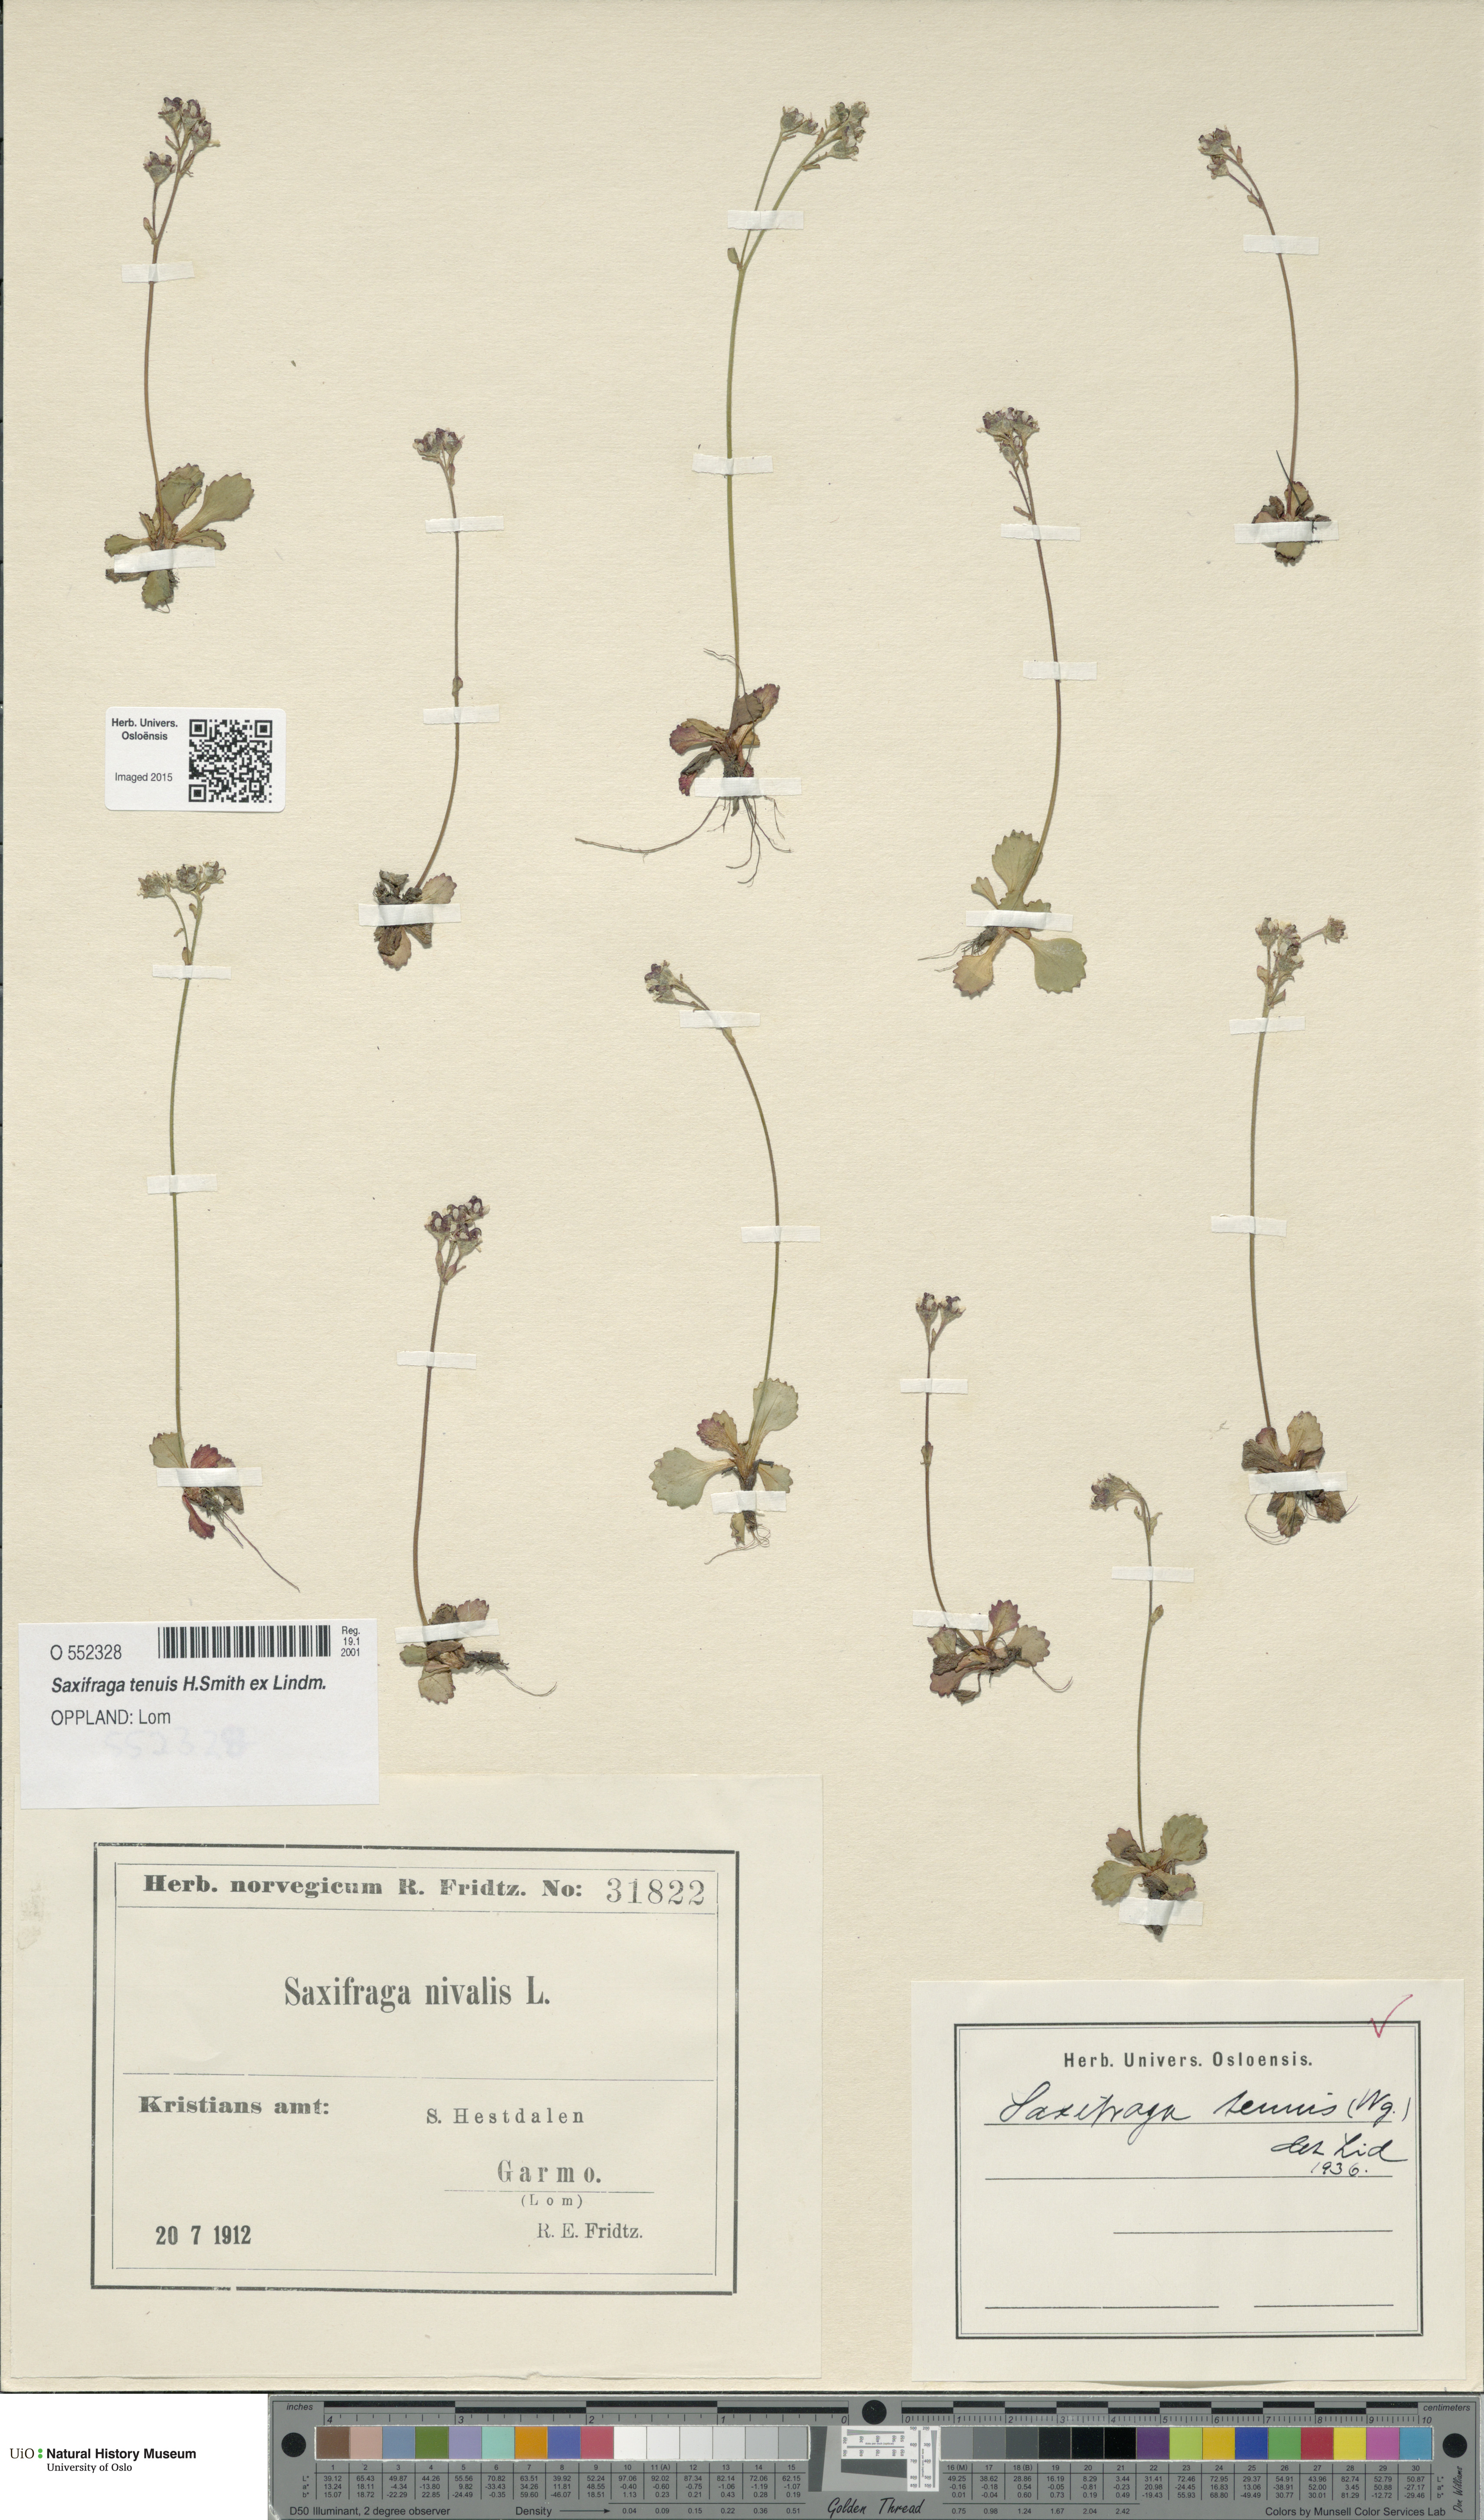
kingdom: Plantae
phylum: Tracheophyta
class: Magnoliopsida
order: Saxifragales
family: Saxifragaceae
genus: Micranthes
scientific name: Micranthes tenuis
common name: Ottertail pass saxifrage
